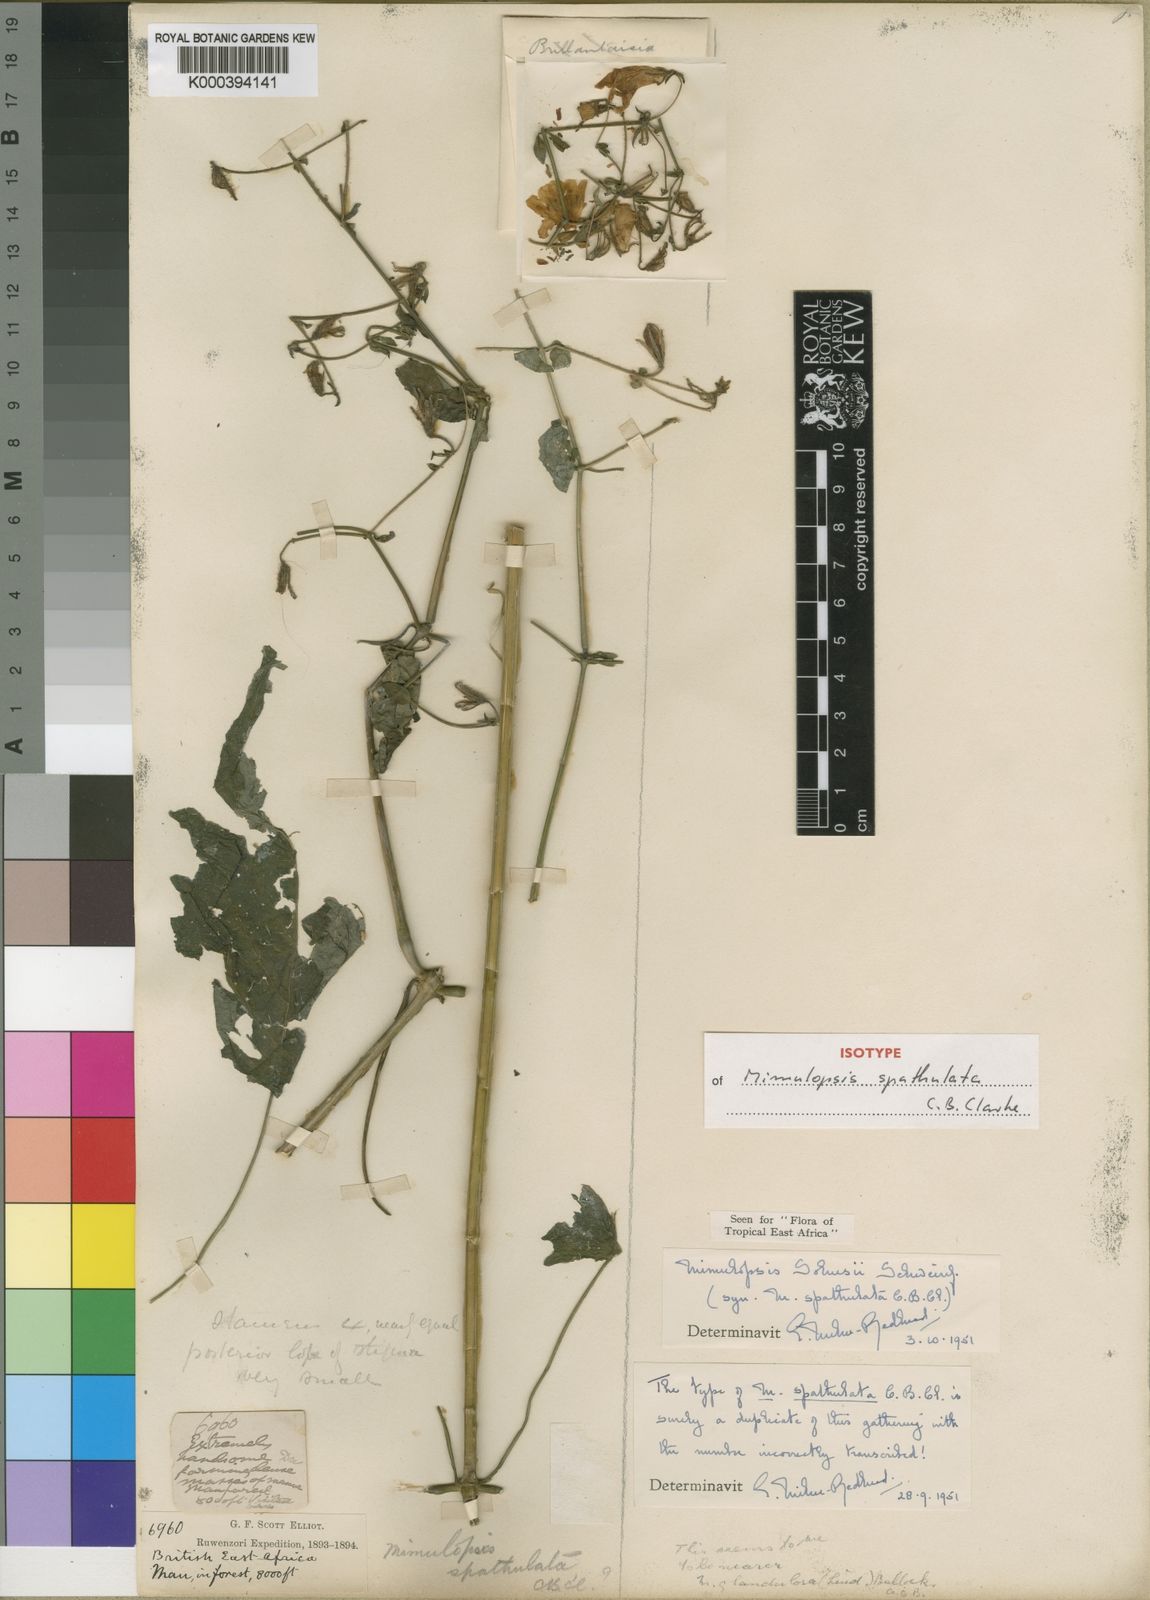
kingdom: Plantae
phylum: Tracheophyta
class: Magnoliopsida
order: Lamiales
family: Acanthaceae
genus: Mimulopsis
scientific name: Mimulopsis solmsii
